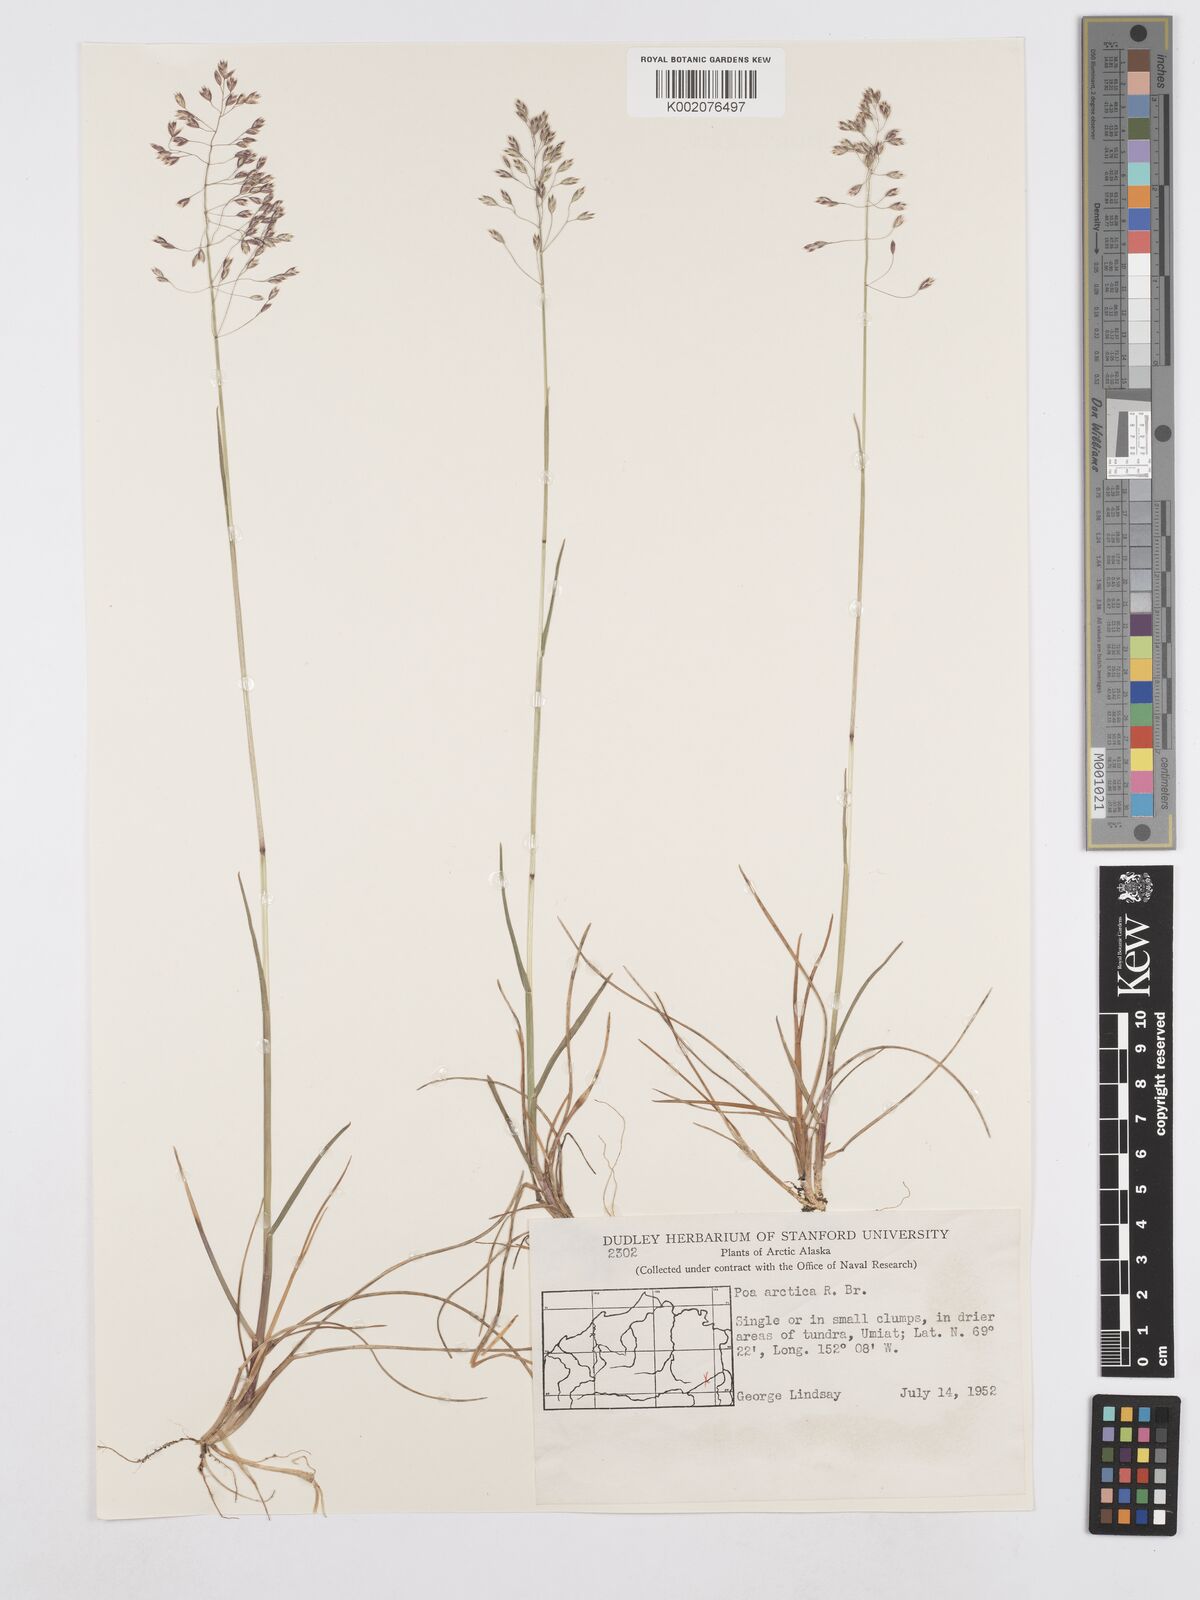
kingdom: Plantae
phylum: Tracheophyta
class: Liliopsida
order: Poales
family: Poaceae
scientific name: Poaceae
